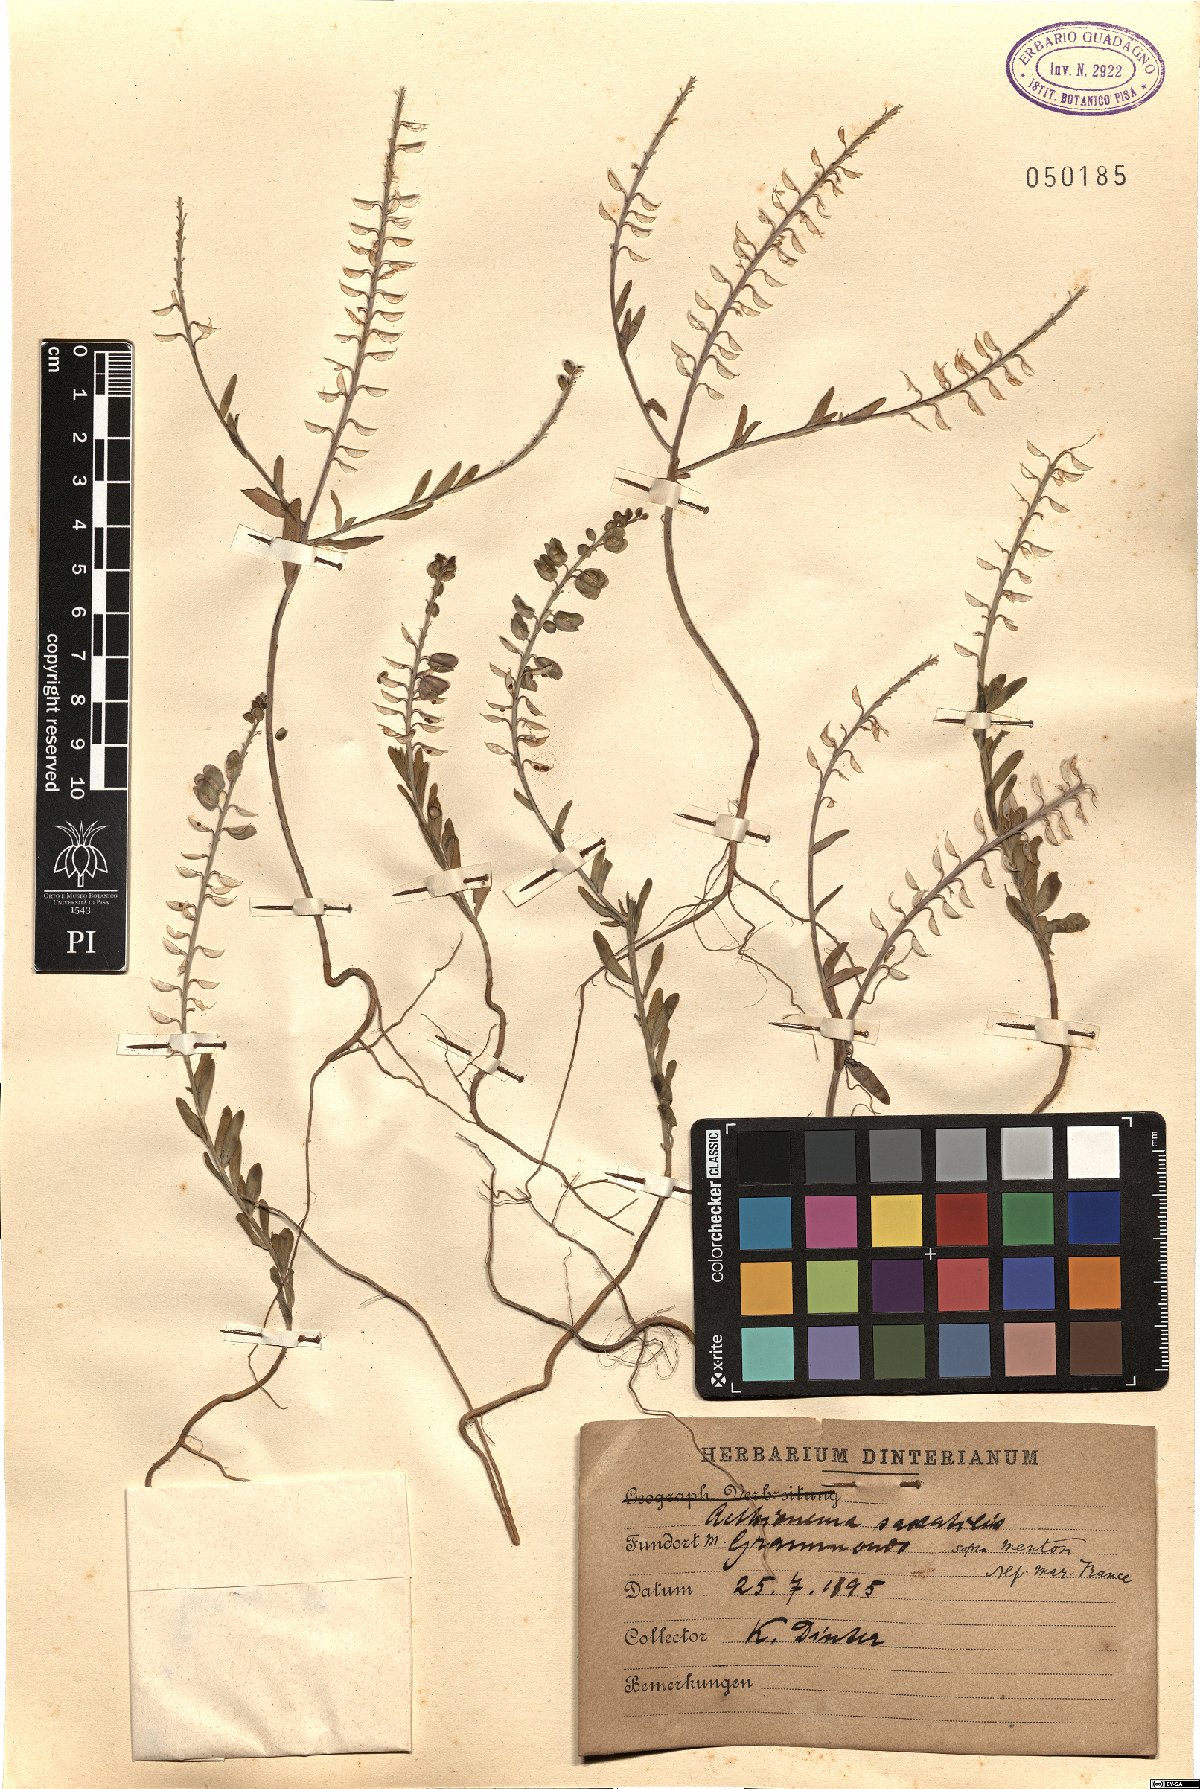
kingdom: Plantae
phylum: Tracheophyta
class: Magnoliopsida
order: Brassicales
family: Brassicaceae
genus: Aethionema
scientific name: Aethionema saxatile
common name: Burnt candytuft
